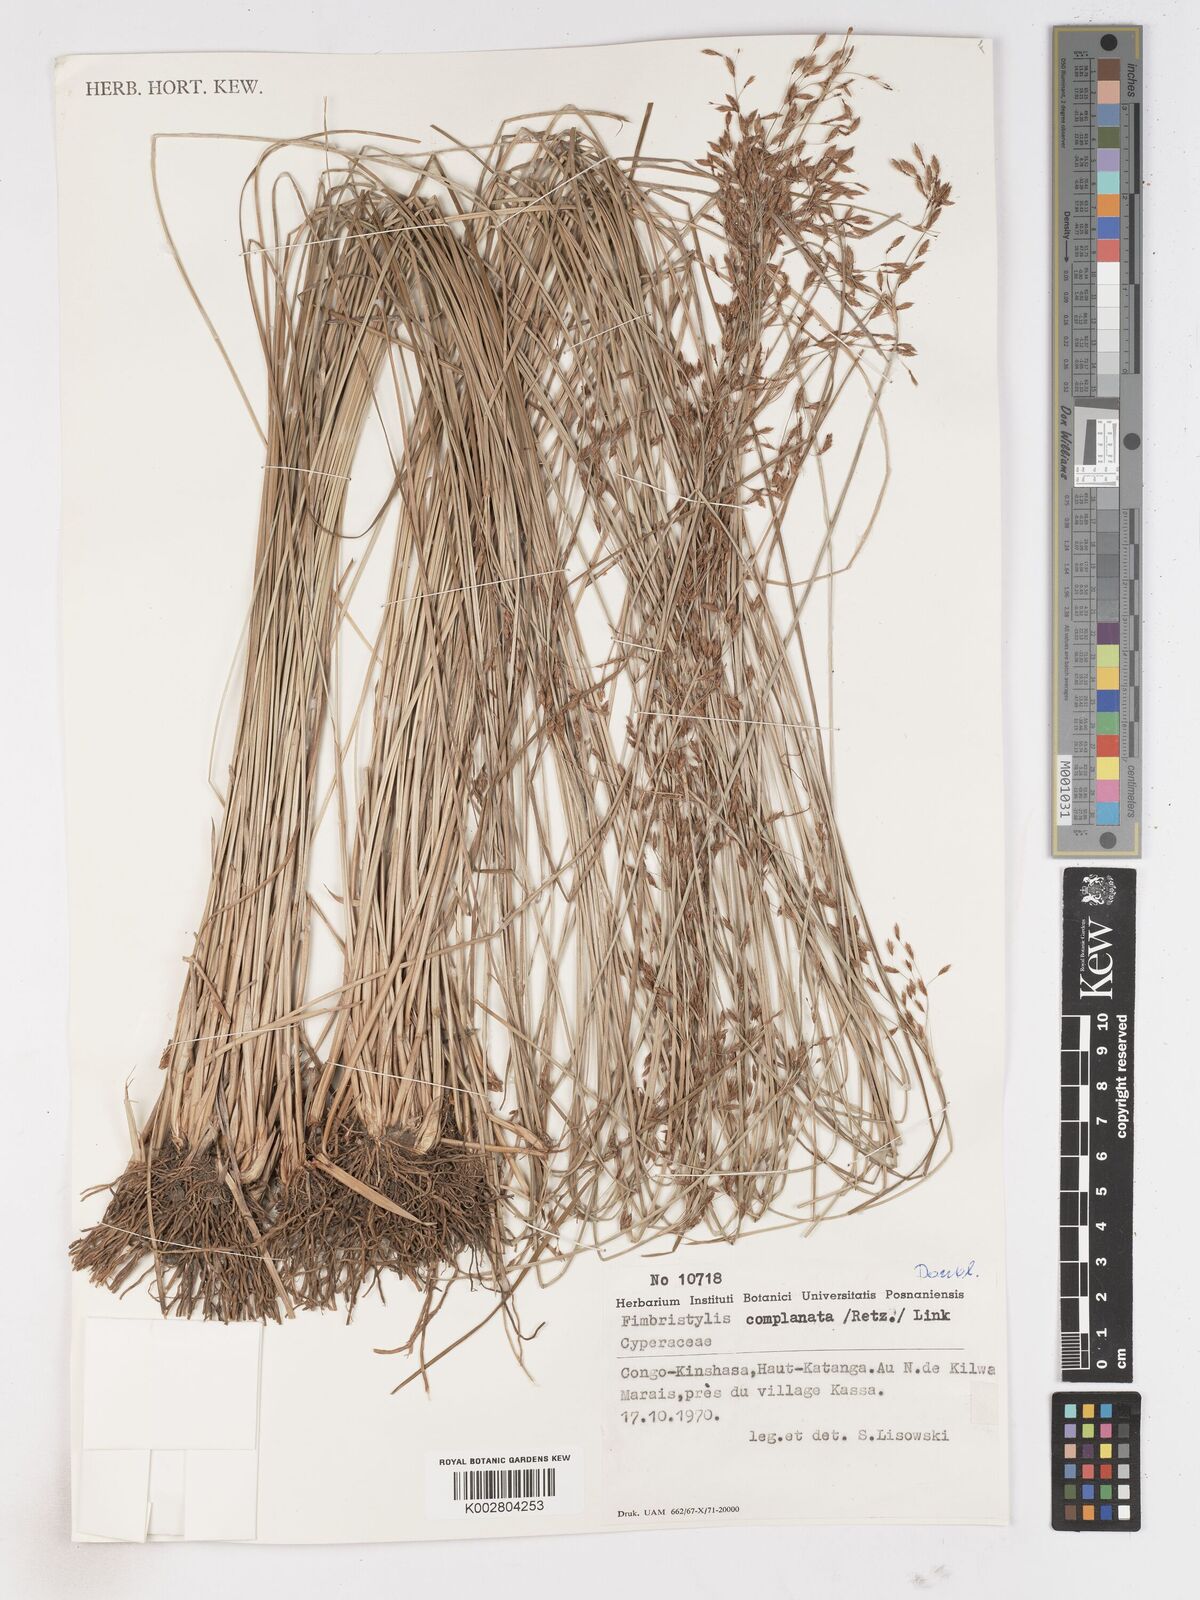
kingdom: Plantae
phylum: Tracheophyta
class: Liliopsida
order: Poales
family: Cyperaceae
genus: Fimbristylis
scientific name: Fimbristylis complanata
